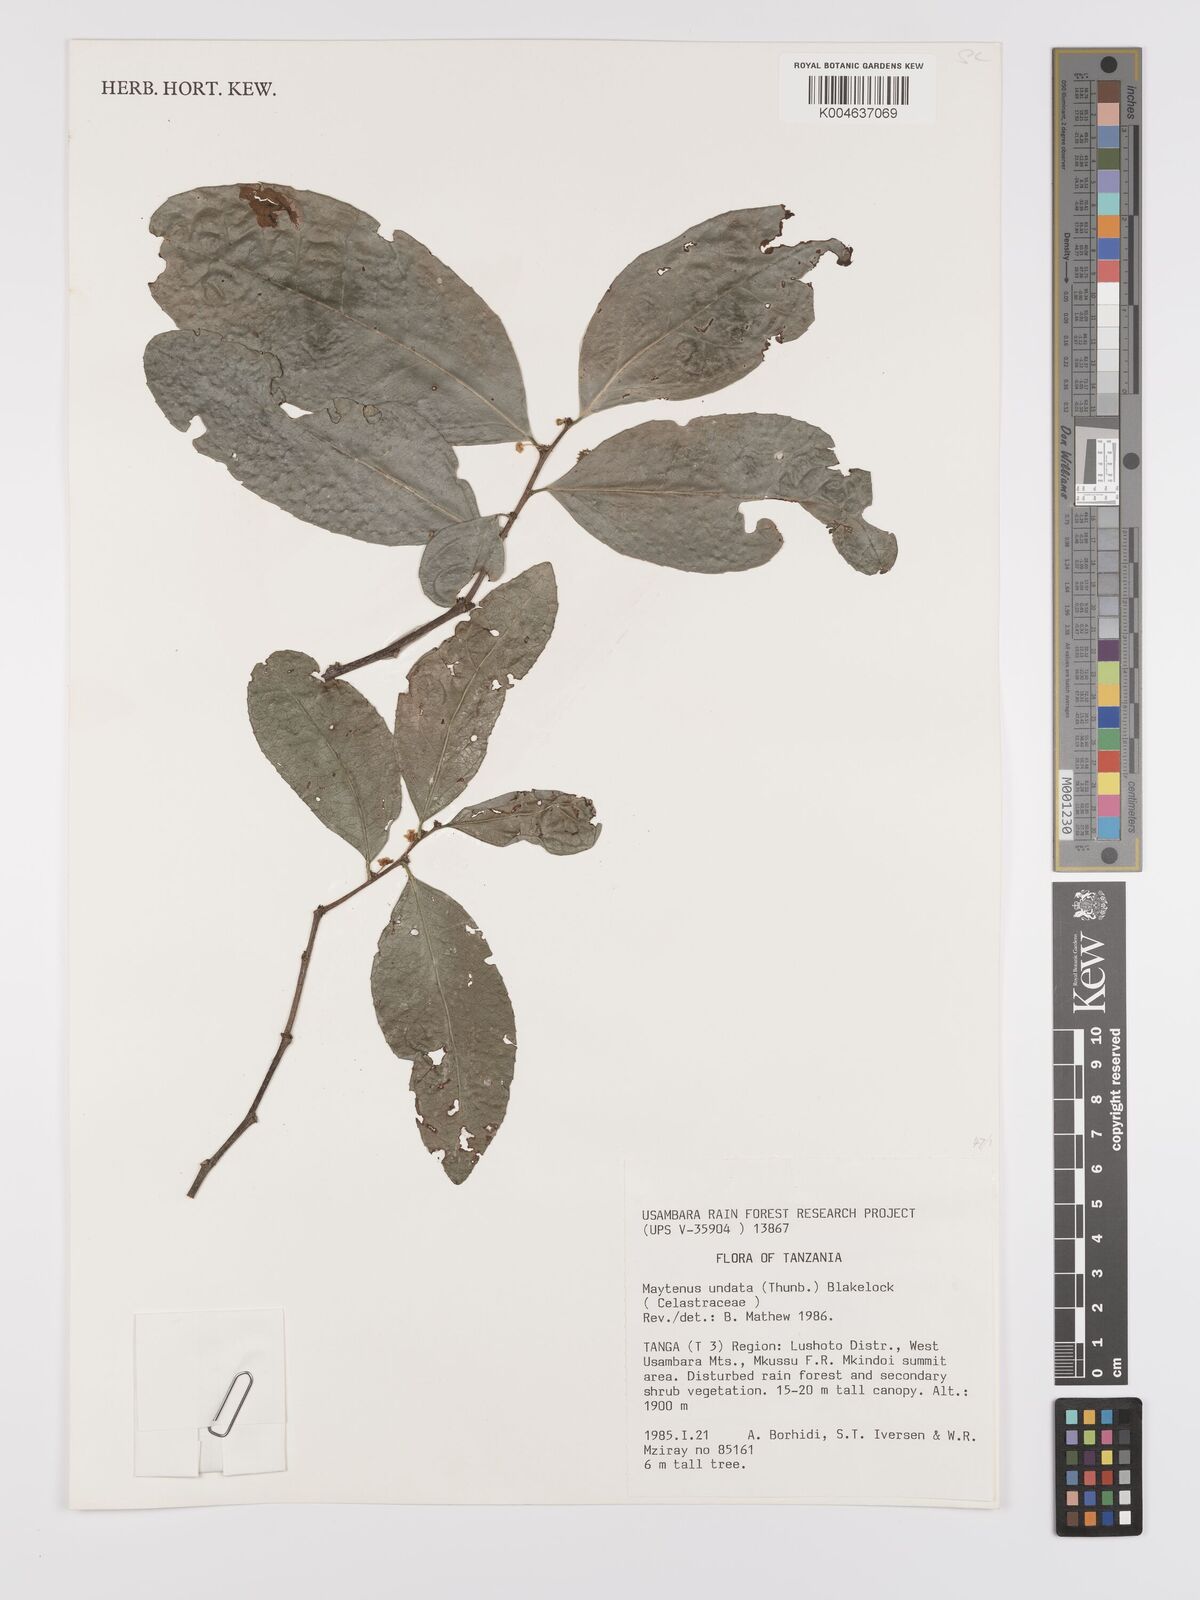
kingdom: Plantae
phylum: Tracheophyta
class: Magnoliopsida
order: Celastrales
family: Celastraceae
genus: Gymnosporia
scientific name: Gymnosporia undata
